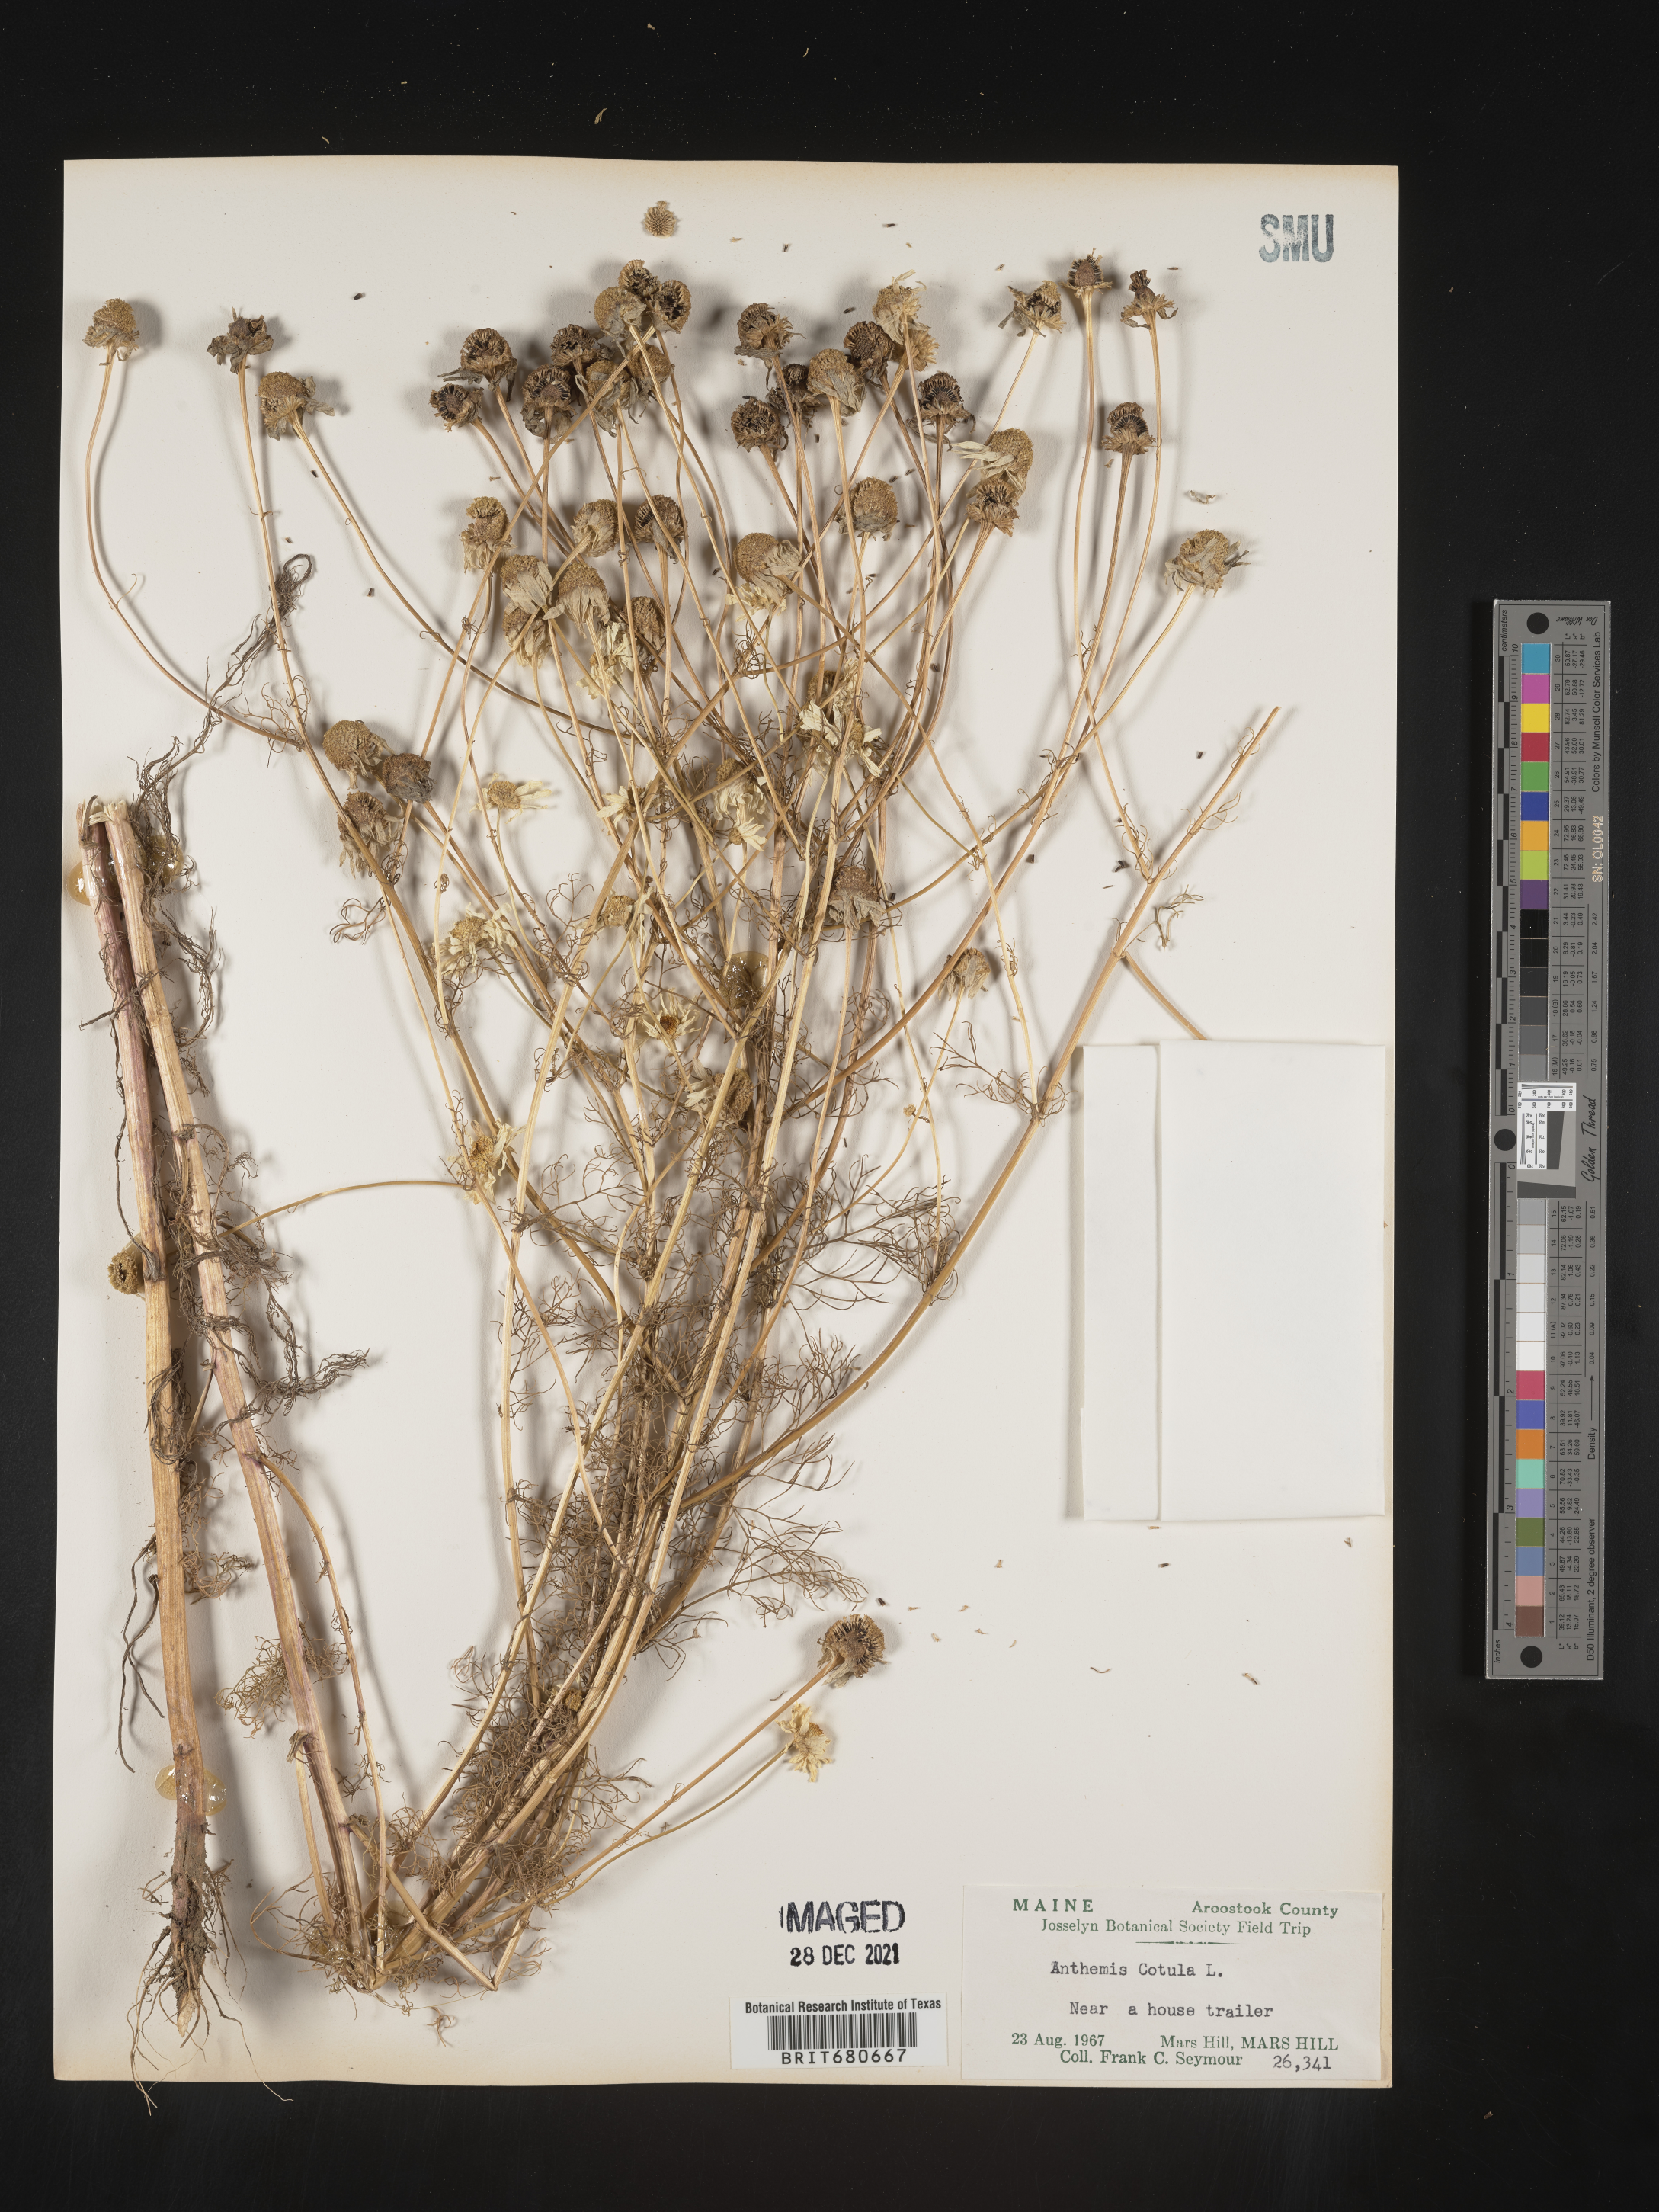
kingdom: Plantae
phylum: Tracheophyta
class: Magnoliopsida
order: Asterales
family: Asteraceae
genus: Anthemis
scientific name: Anthemis cotula
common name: Stinking chamomile
